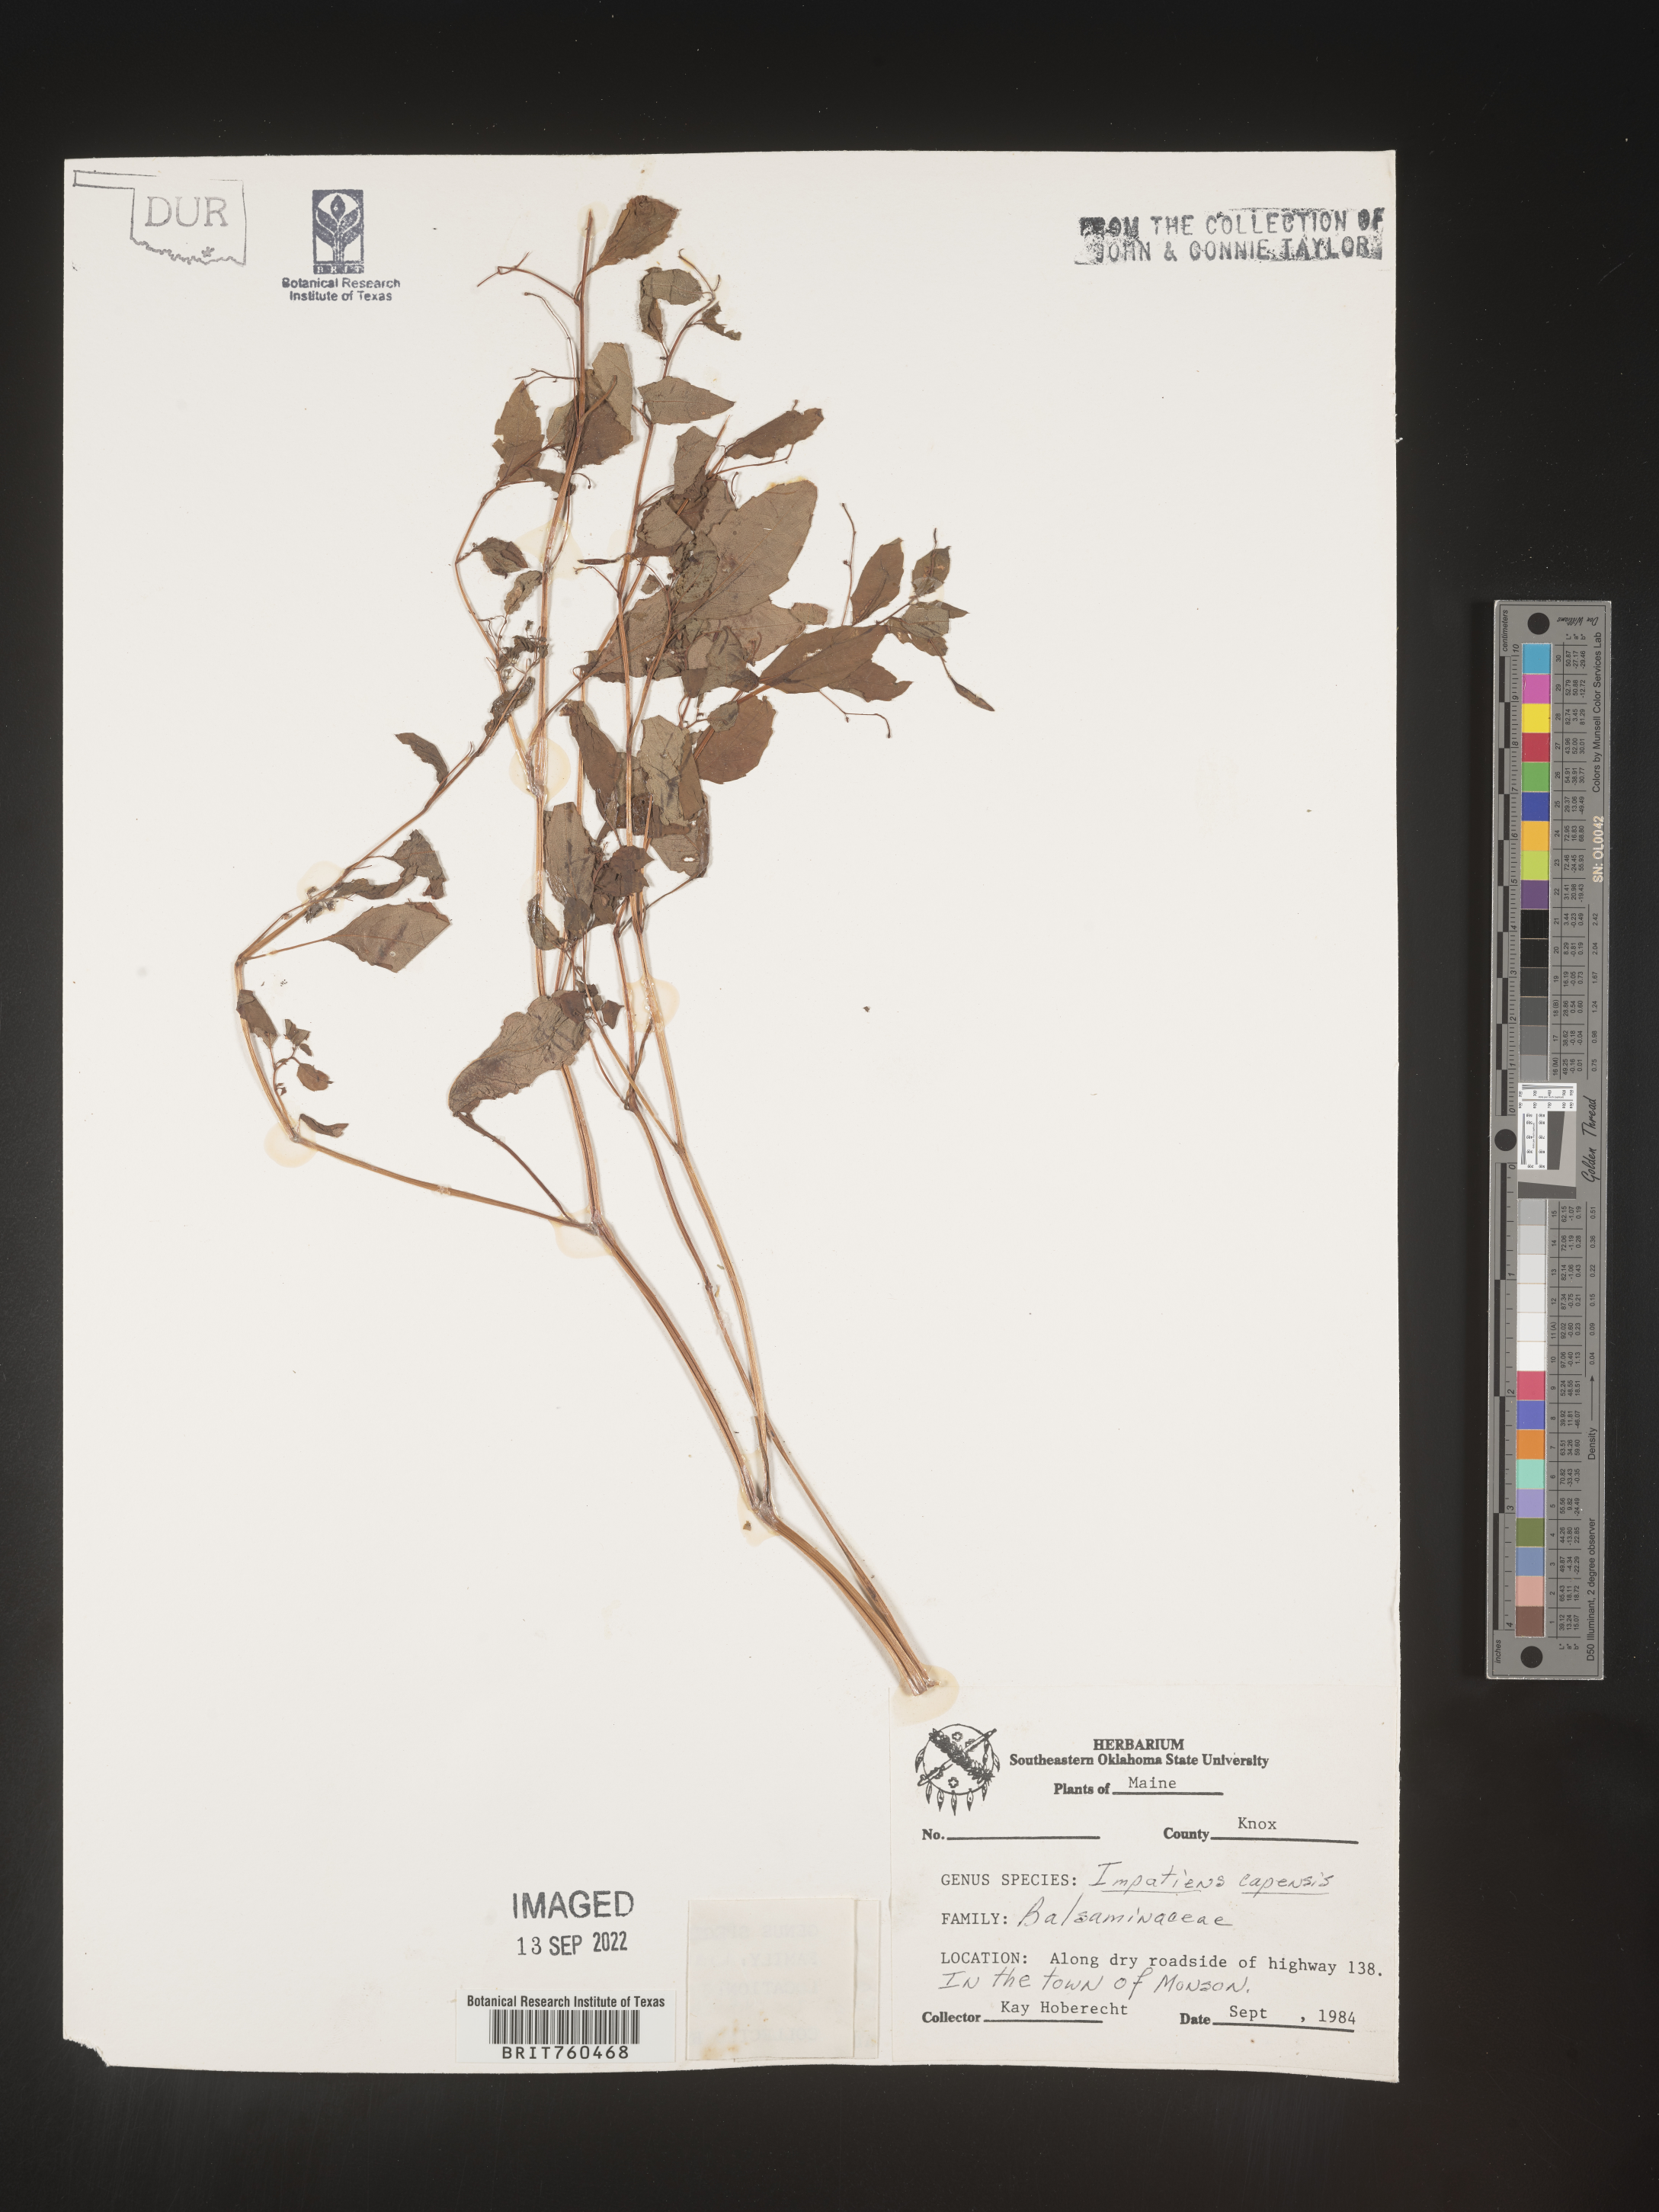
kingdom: Plantae
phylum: Tracheophyta
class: Magnoliopsida
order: Ericales
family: Balsaminaceae
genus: Impatiens
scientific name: Impatiens capensis
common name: Orange balsam
